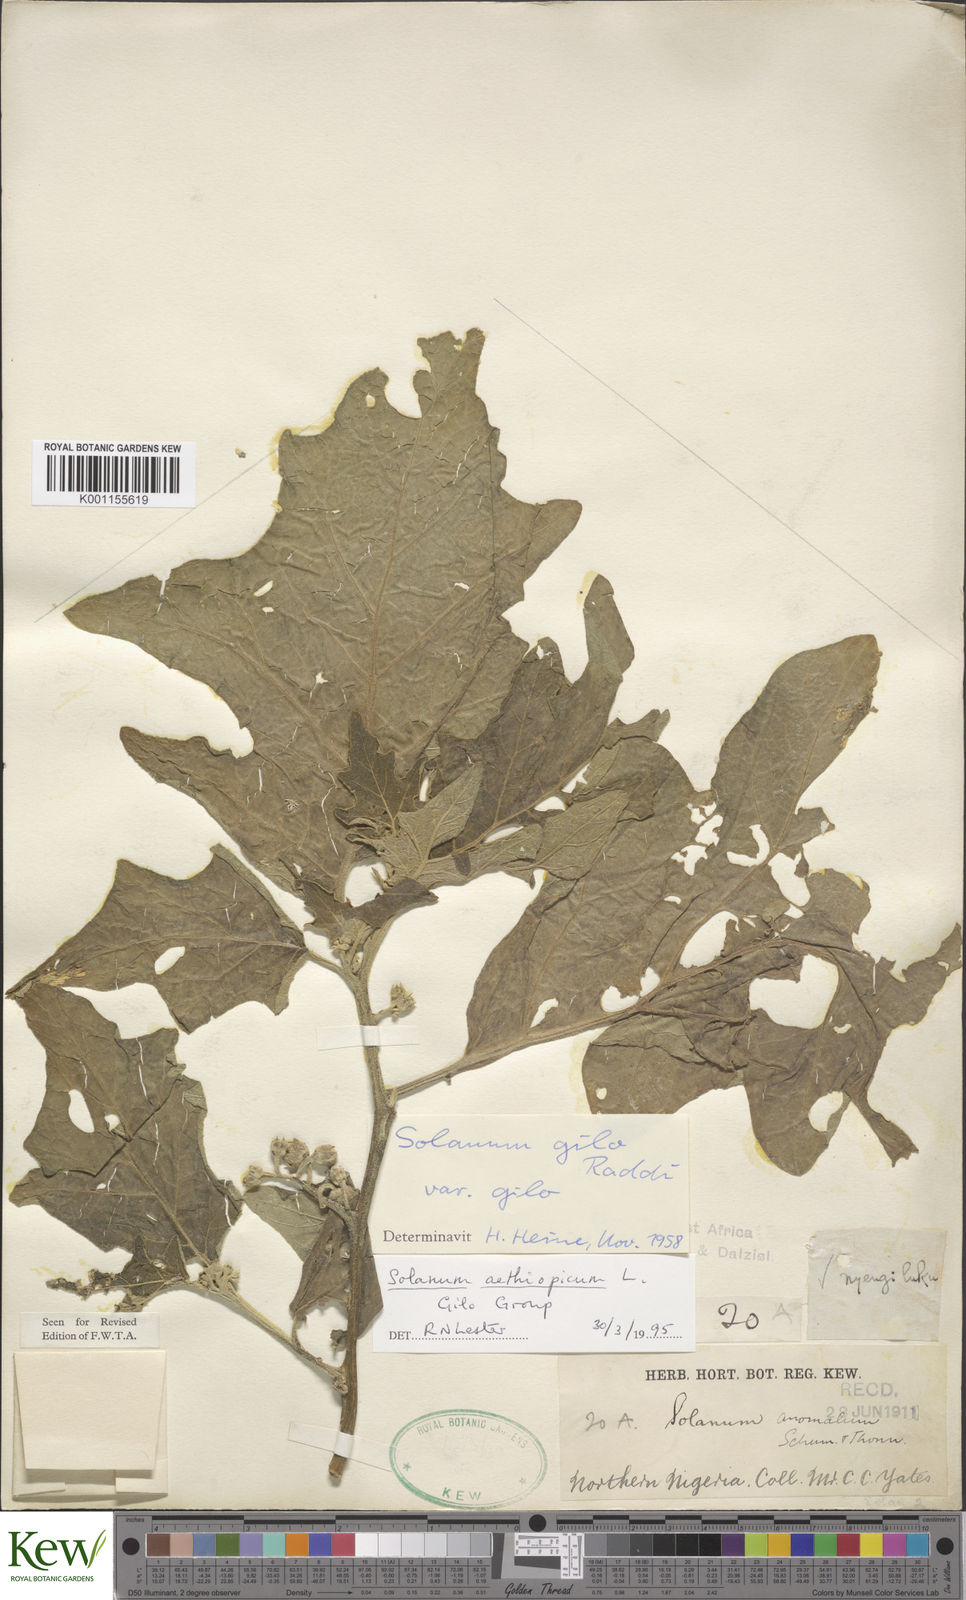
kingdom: Plantae
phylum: Tracheophyta
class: Magnoliopsida
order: Solanales
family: Solanaceae
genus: Solanum
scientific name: Solanum aethiopicum
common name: Gilo
